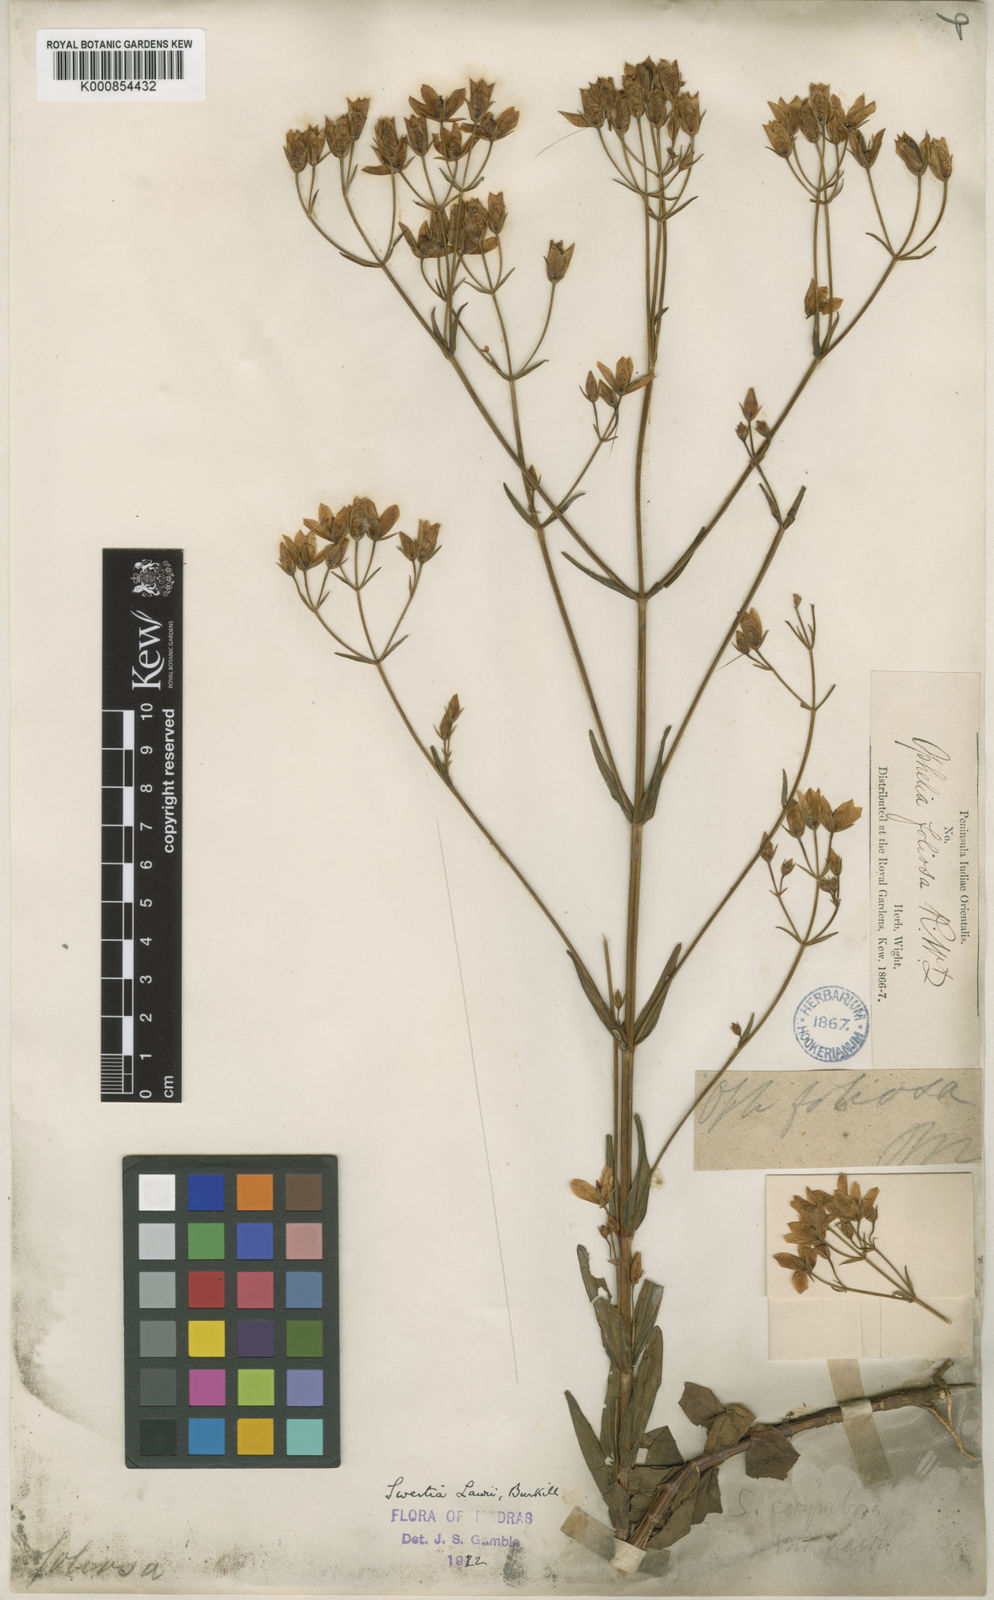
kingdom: Plantae
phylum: Tracheophyta
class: Magnoliopsida
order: Gentianales
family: Gentianaceae
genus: Swertia
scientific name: Swertia
